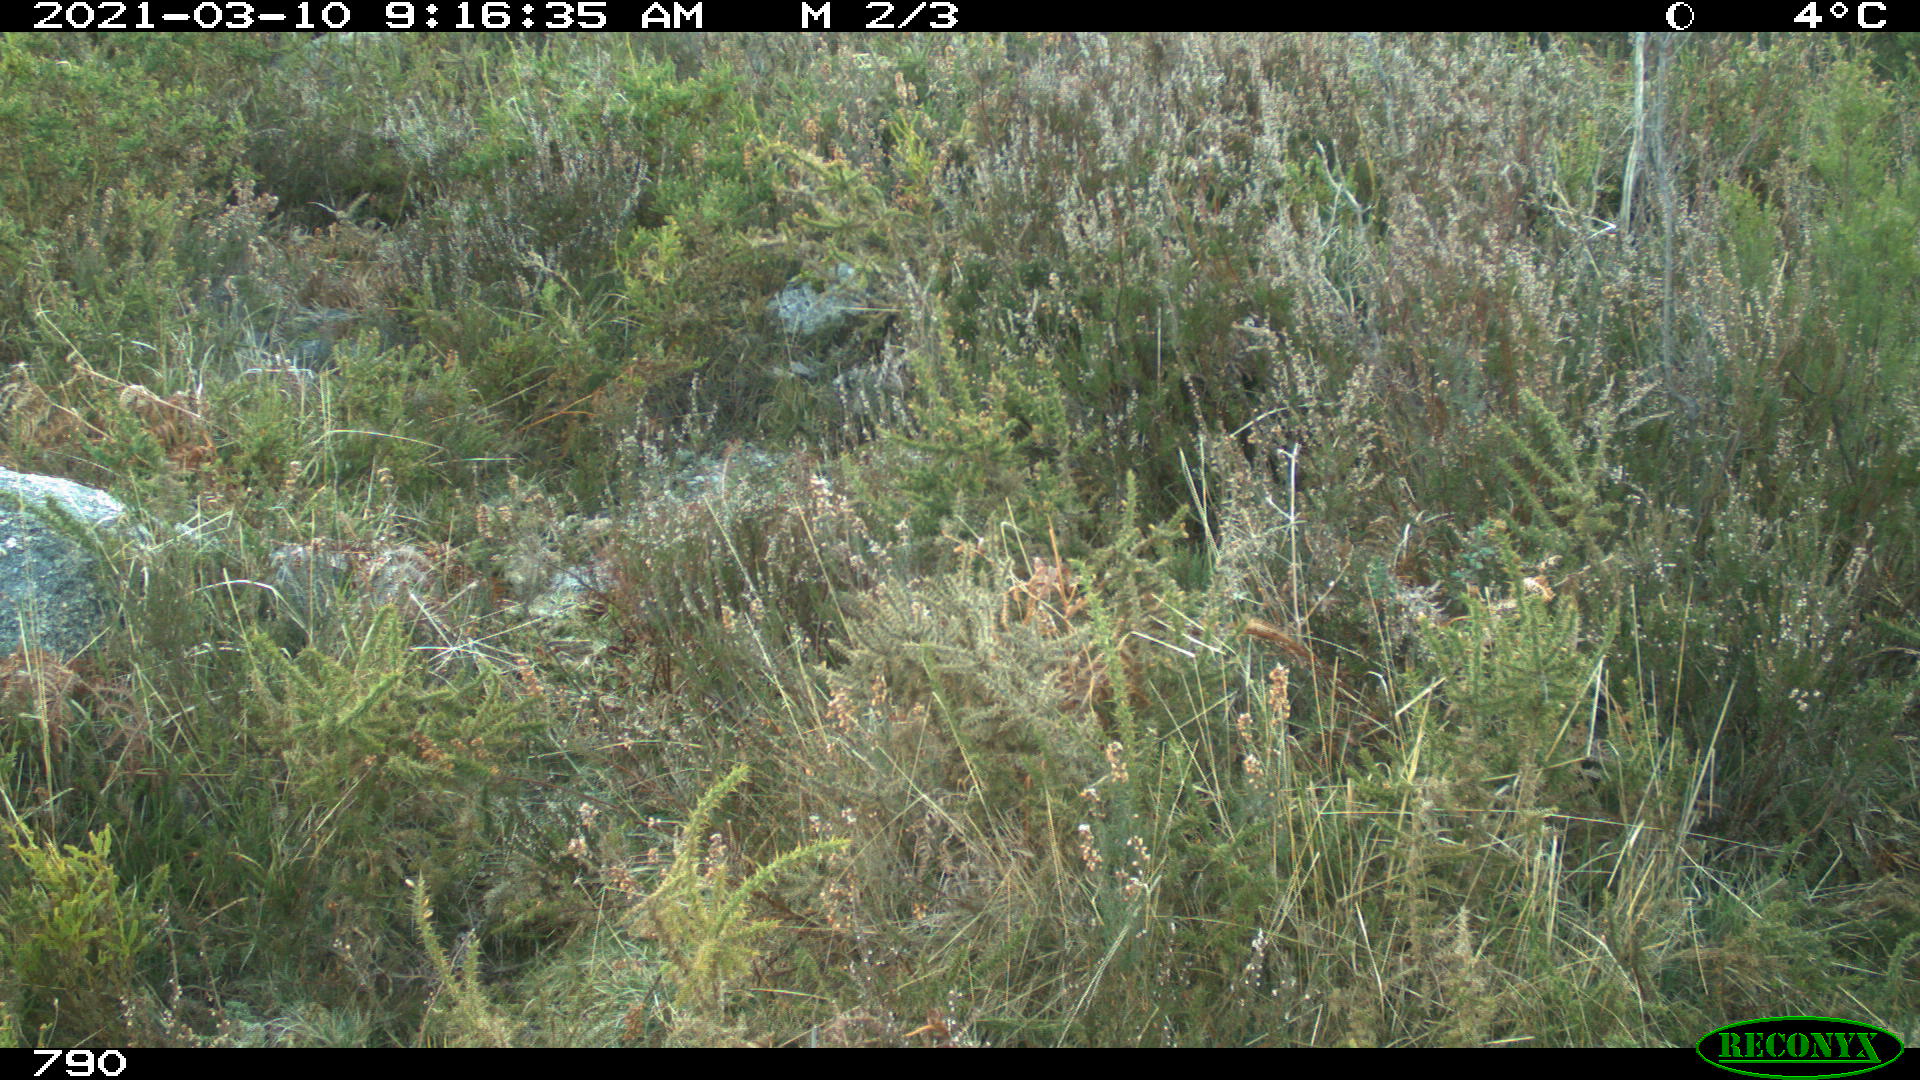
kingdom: Animalia
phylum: Chordata
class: Mammalia
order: Artiodactyla
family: Cervidae
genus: Capreolus
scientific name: Capreolus capreolus
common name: Western roe deer
